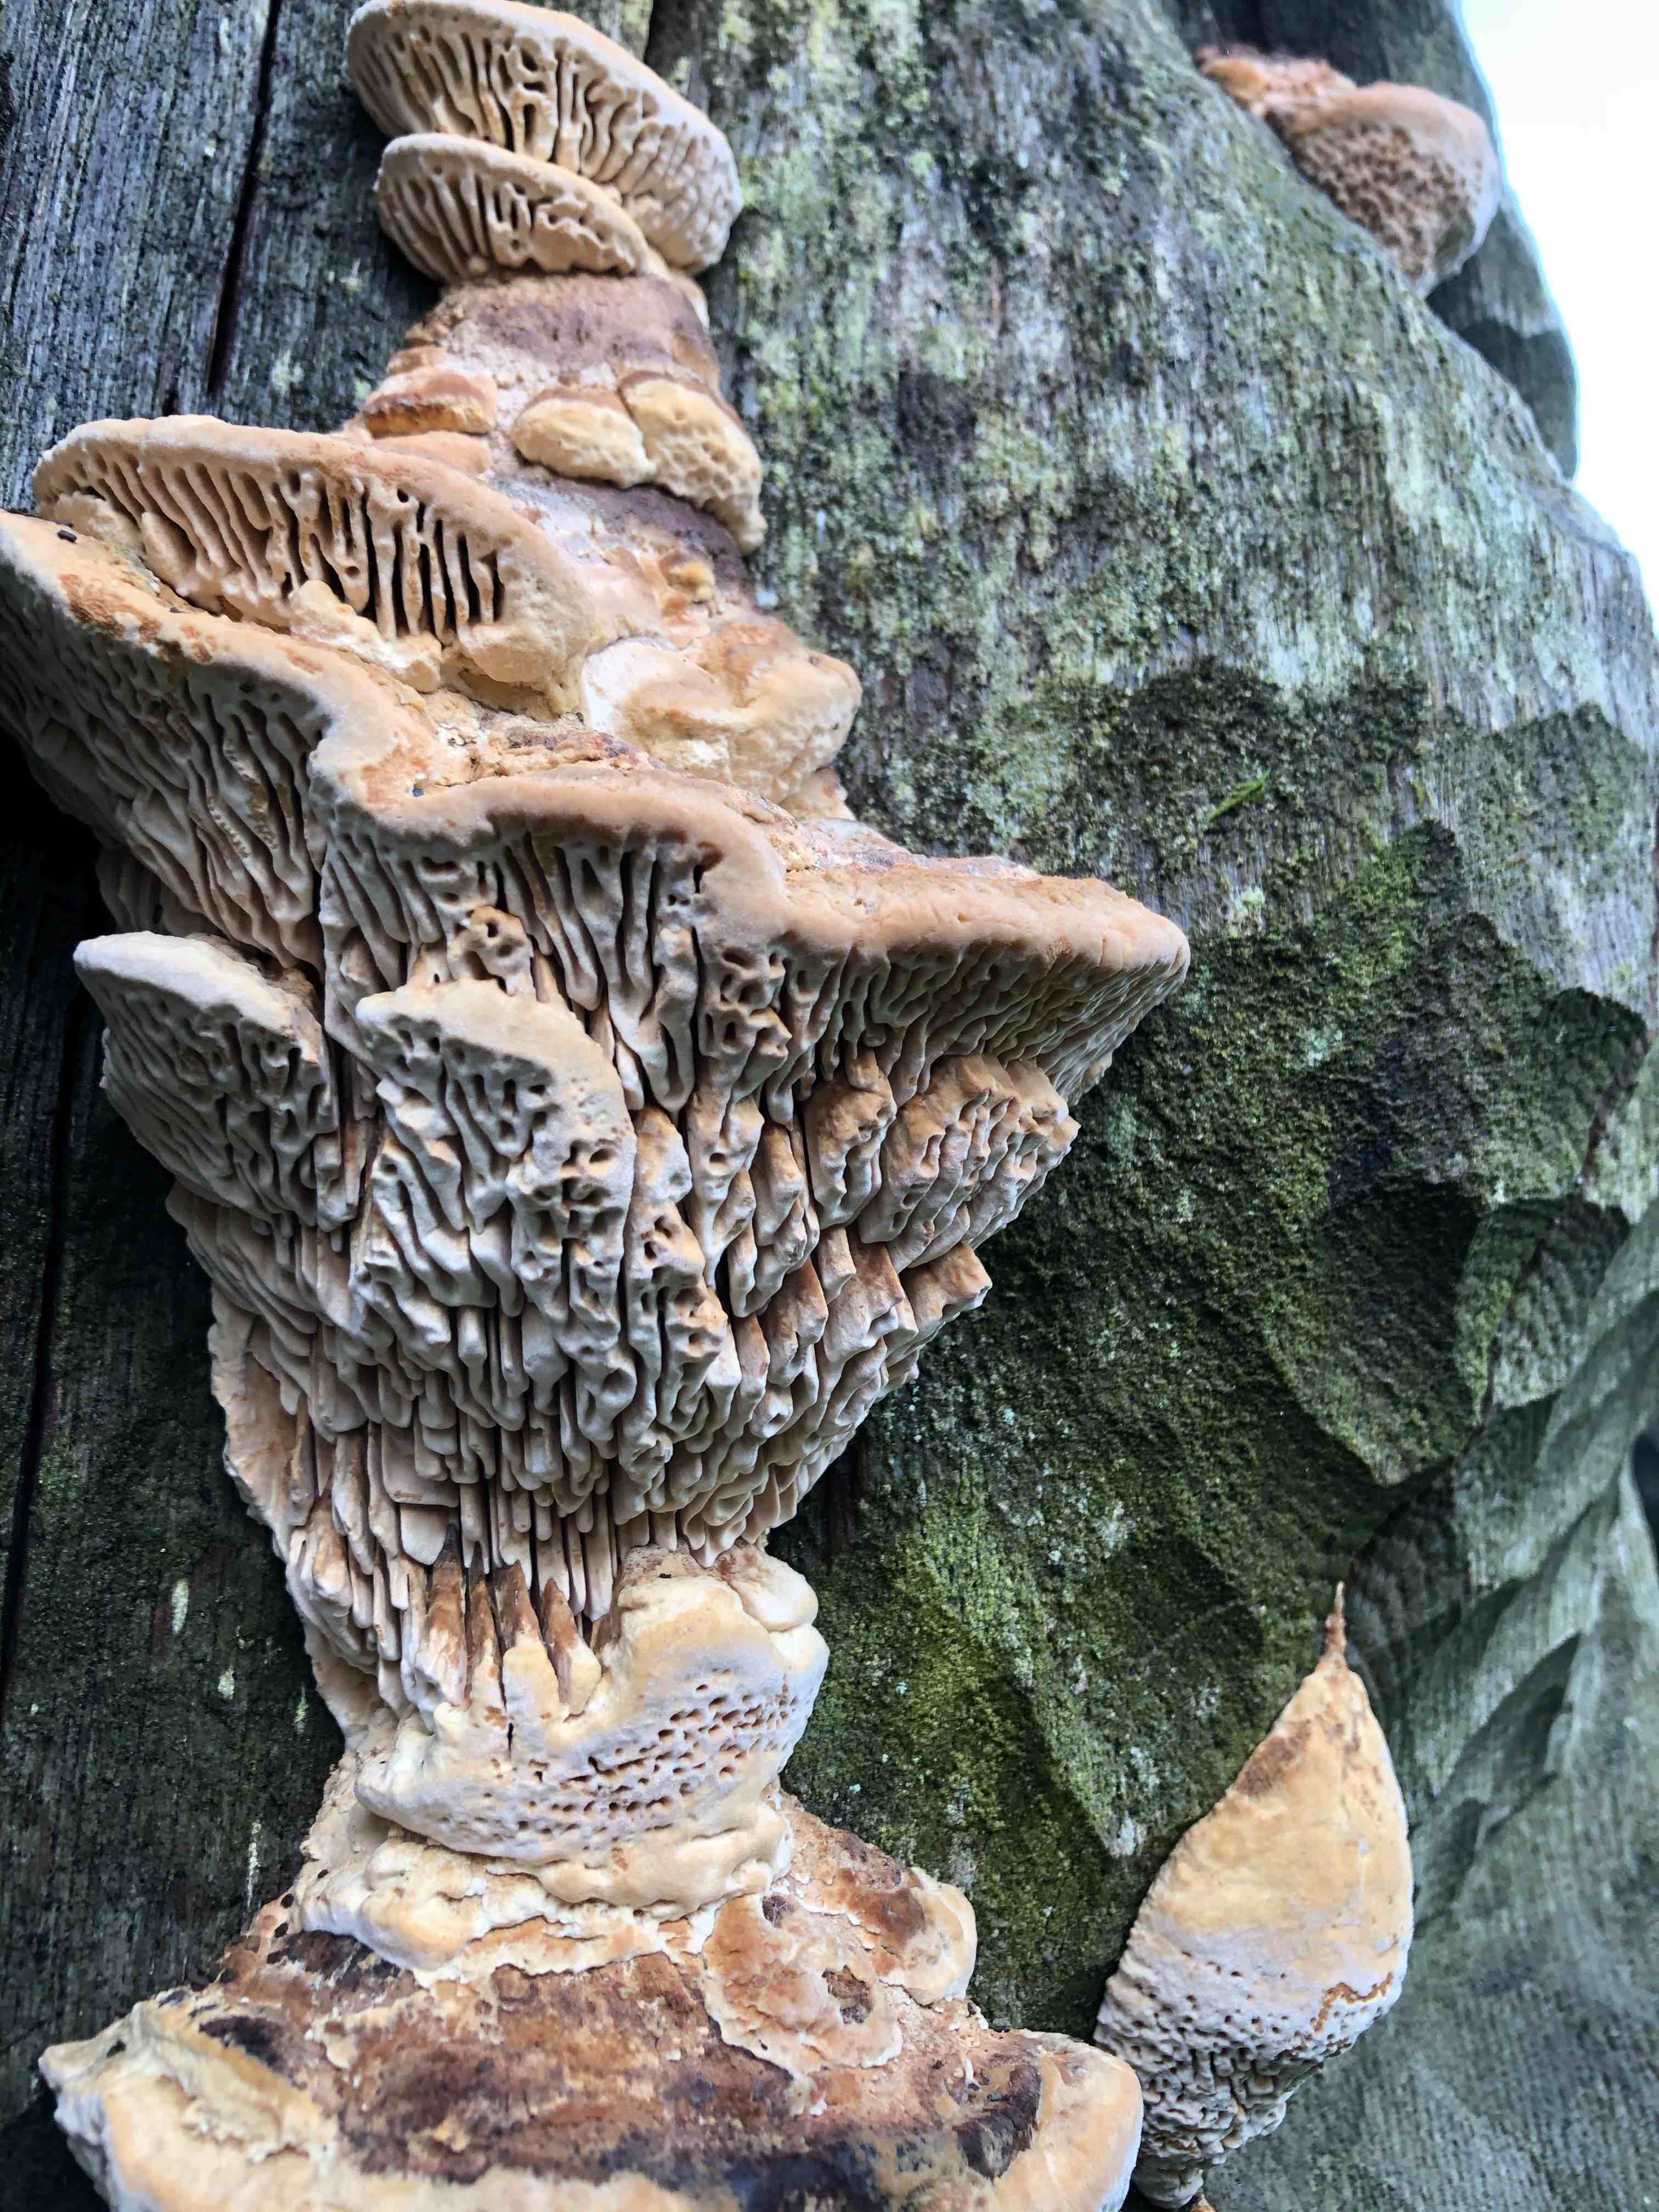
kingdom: Fungi
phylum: Basidiomycota
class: Agaricomycetes
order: Polyporales
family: Fomitopsidaceae
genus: Daedalea
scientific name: Daedalea quercina
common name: ege-labyrintsvamp
